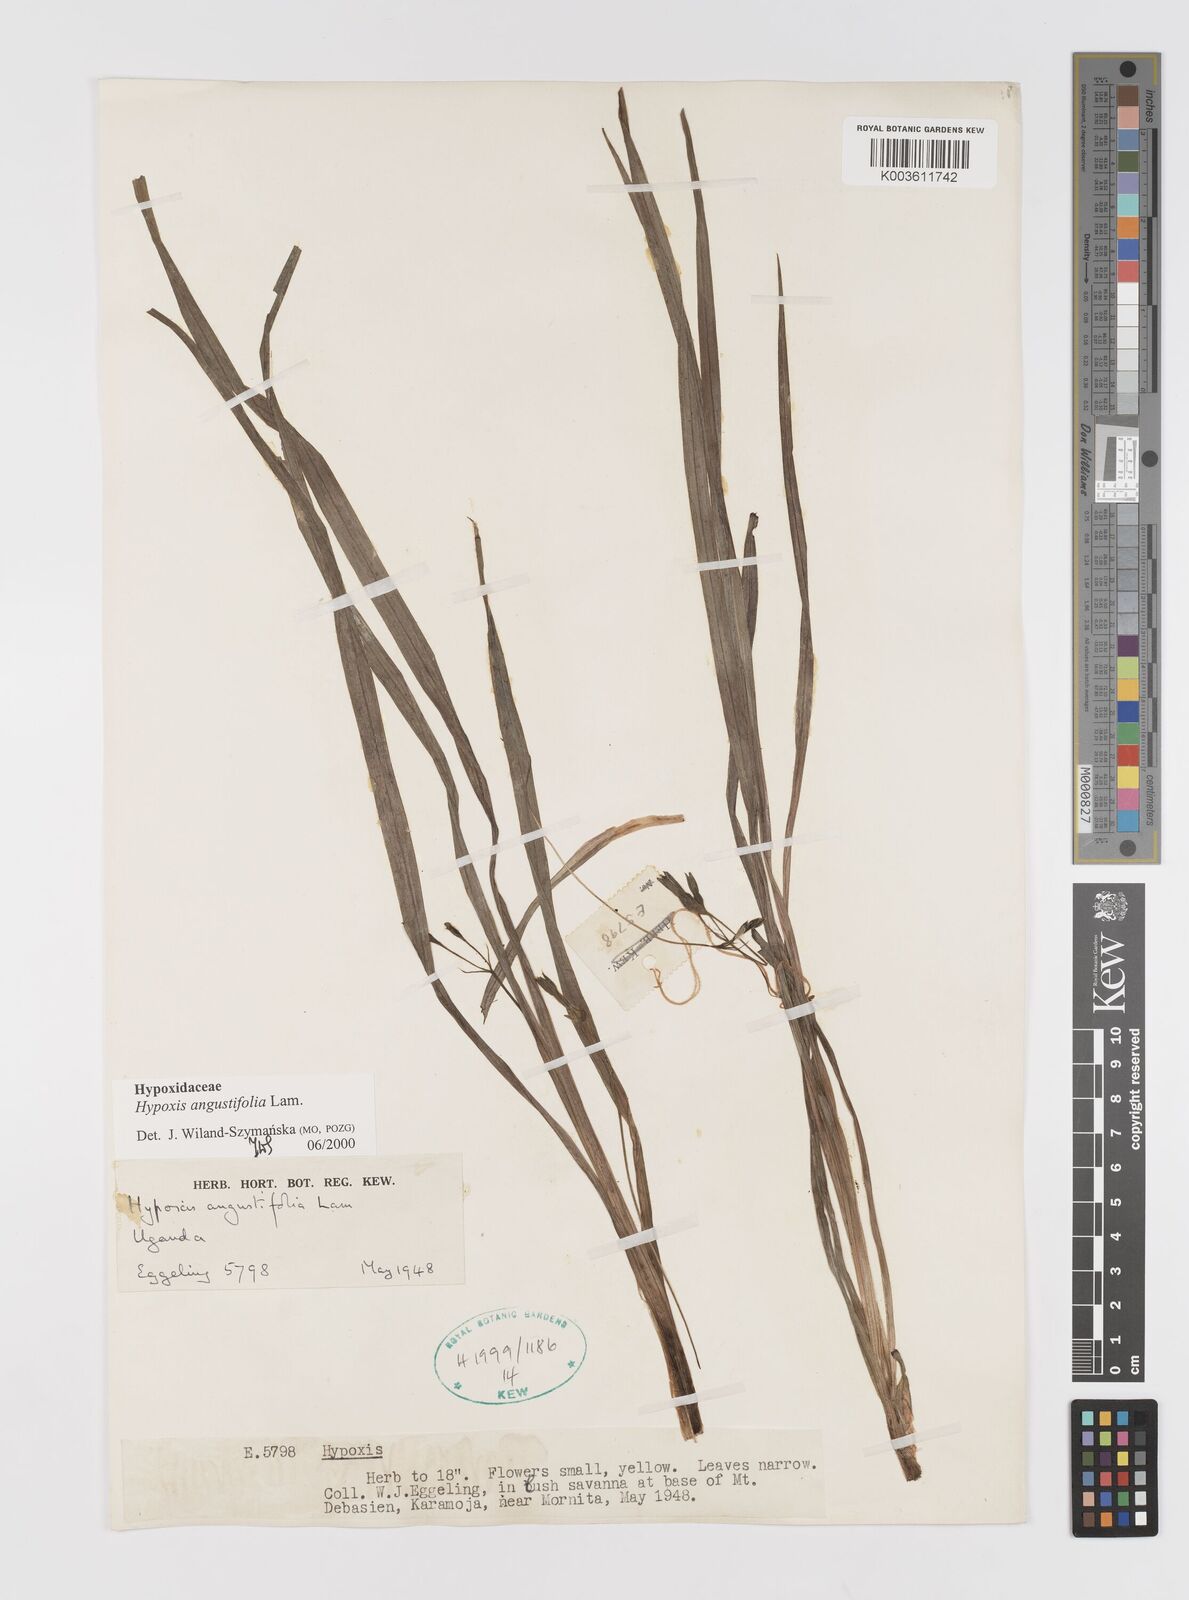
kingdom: Plantae
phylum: Tracheophyta
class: Liliopsida
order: Asparagales
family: Hypoxidaceae
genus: Hypoxis
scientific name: Hypoxis angustifolia
